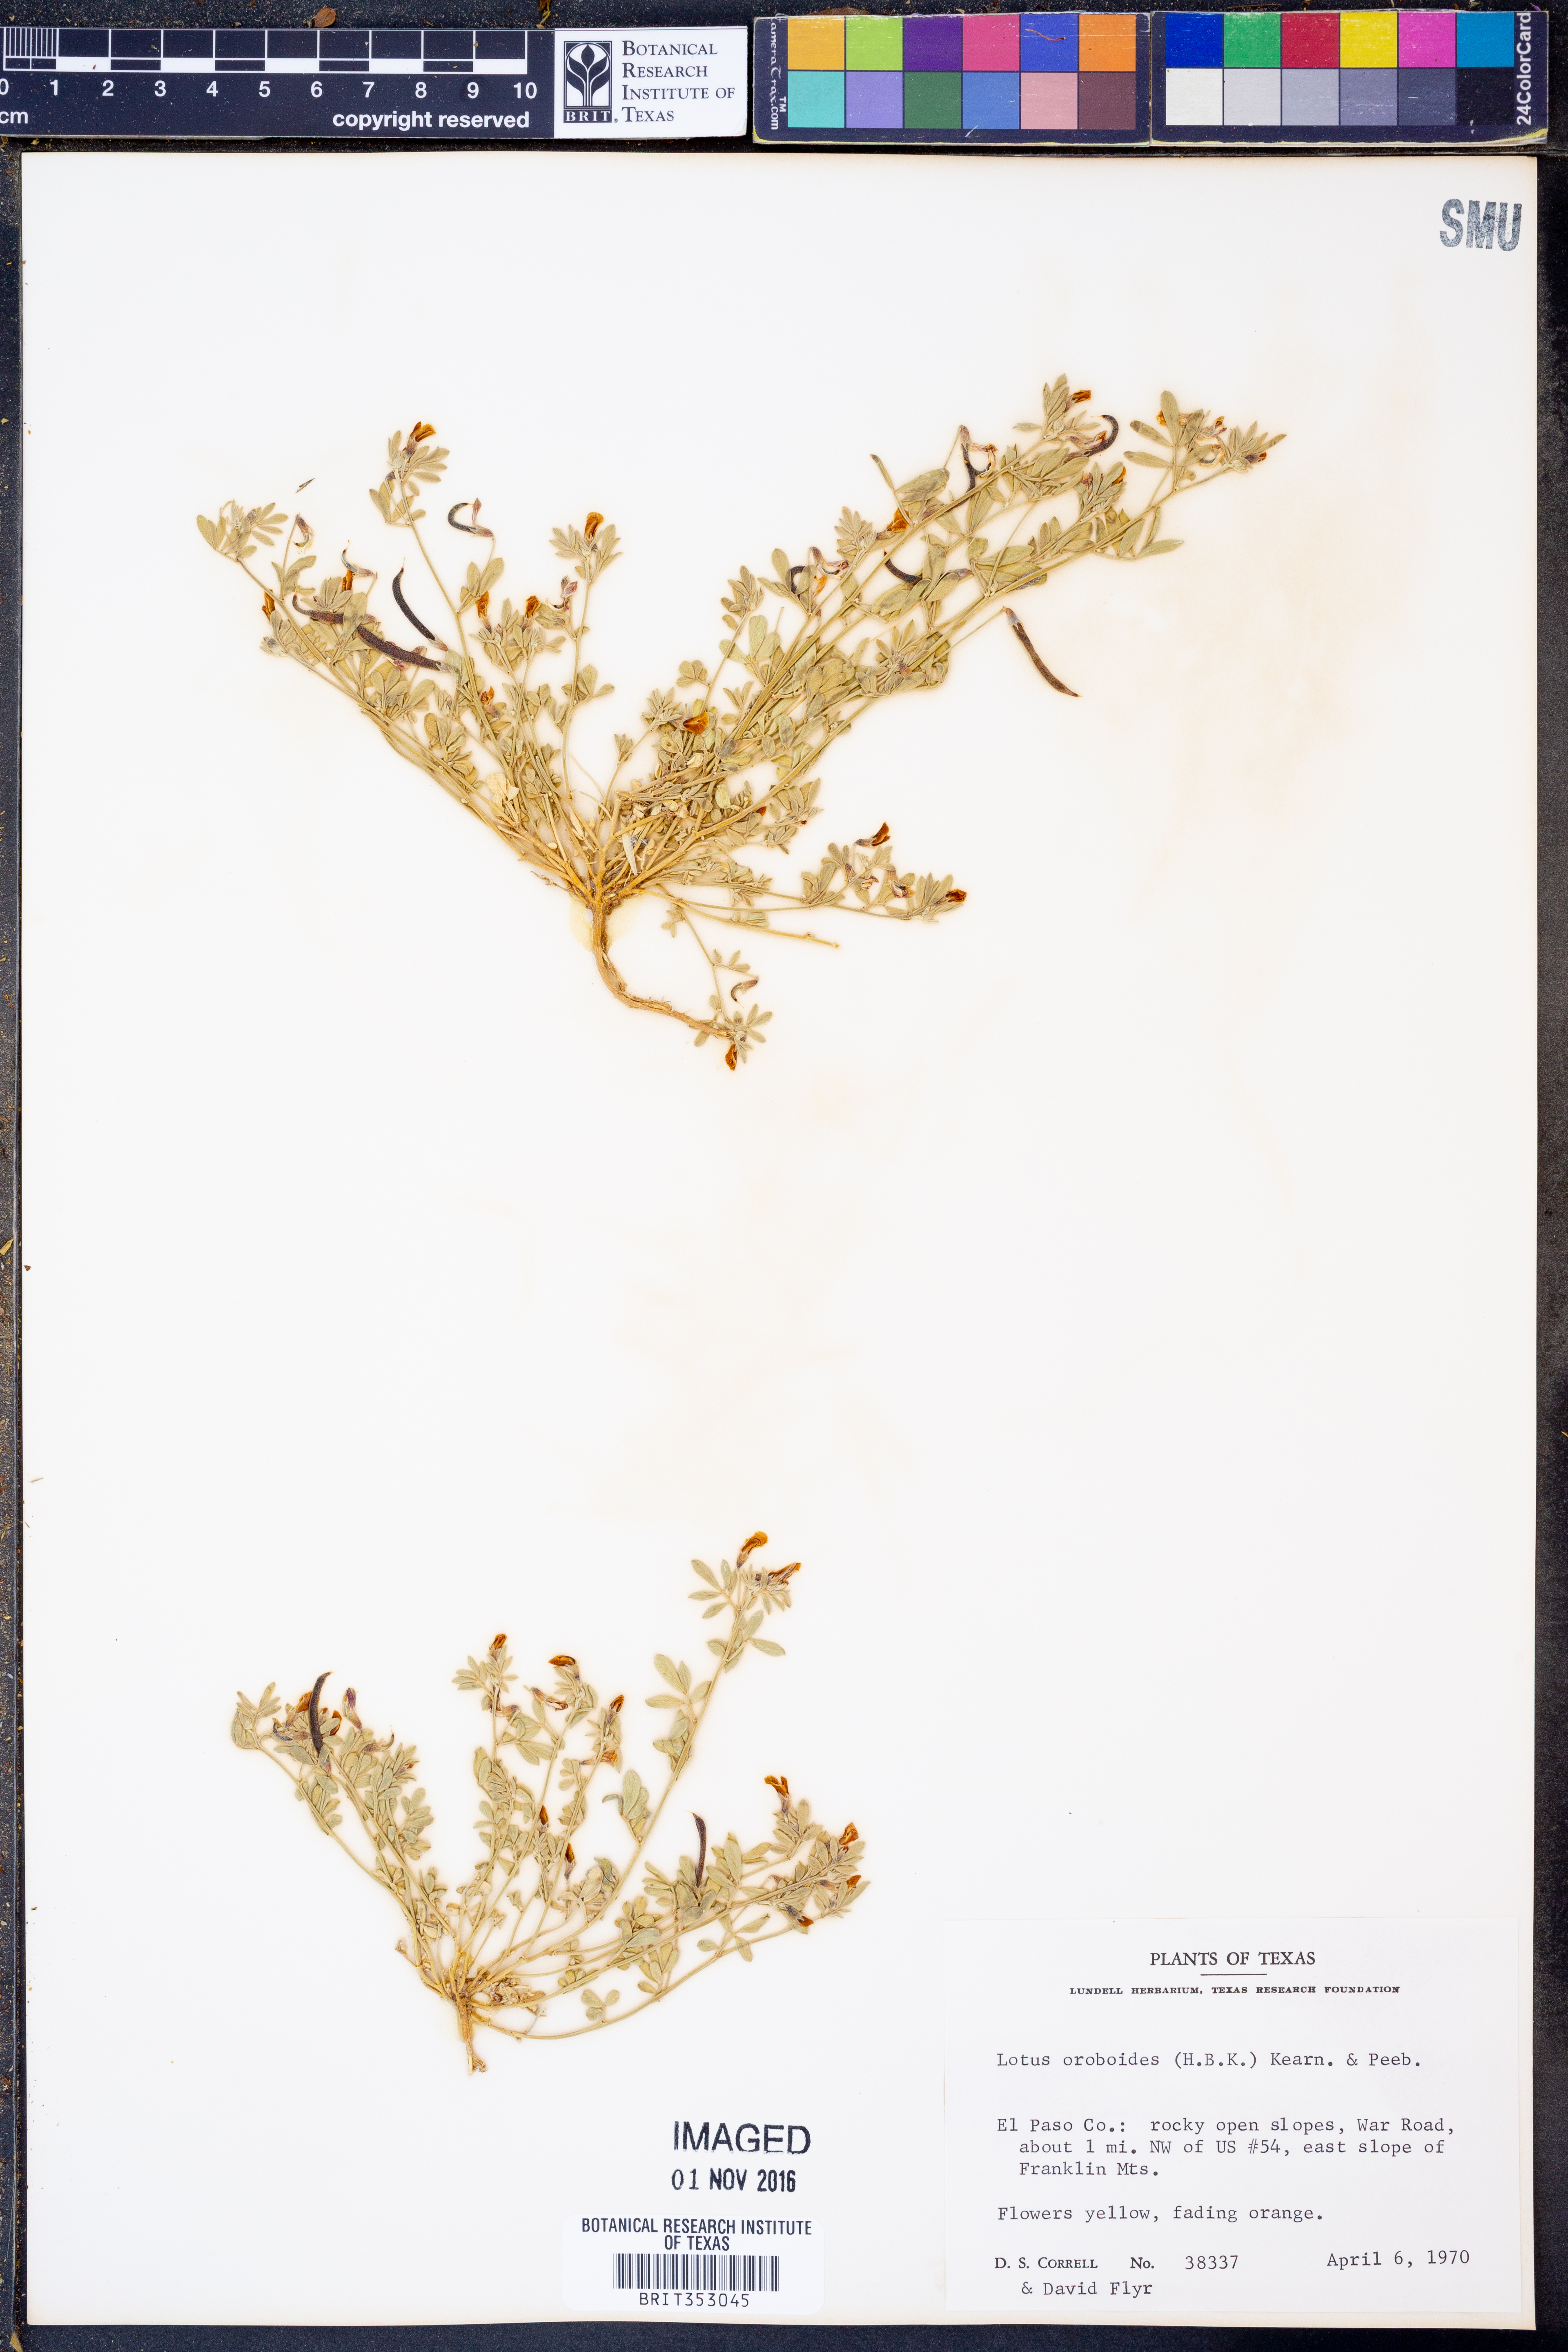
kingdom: Plantae
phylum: Tracheophyta
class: Magnoliopsida
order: Fabales
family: Fabaceae
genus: Acmispon
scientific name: Acmispon oroboides
